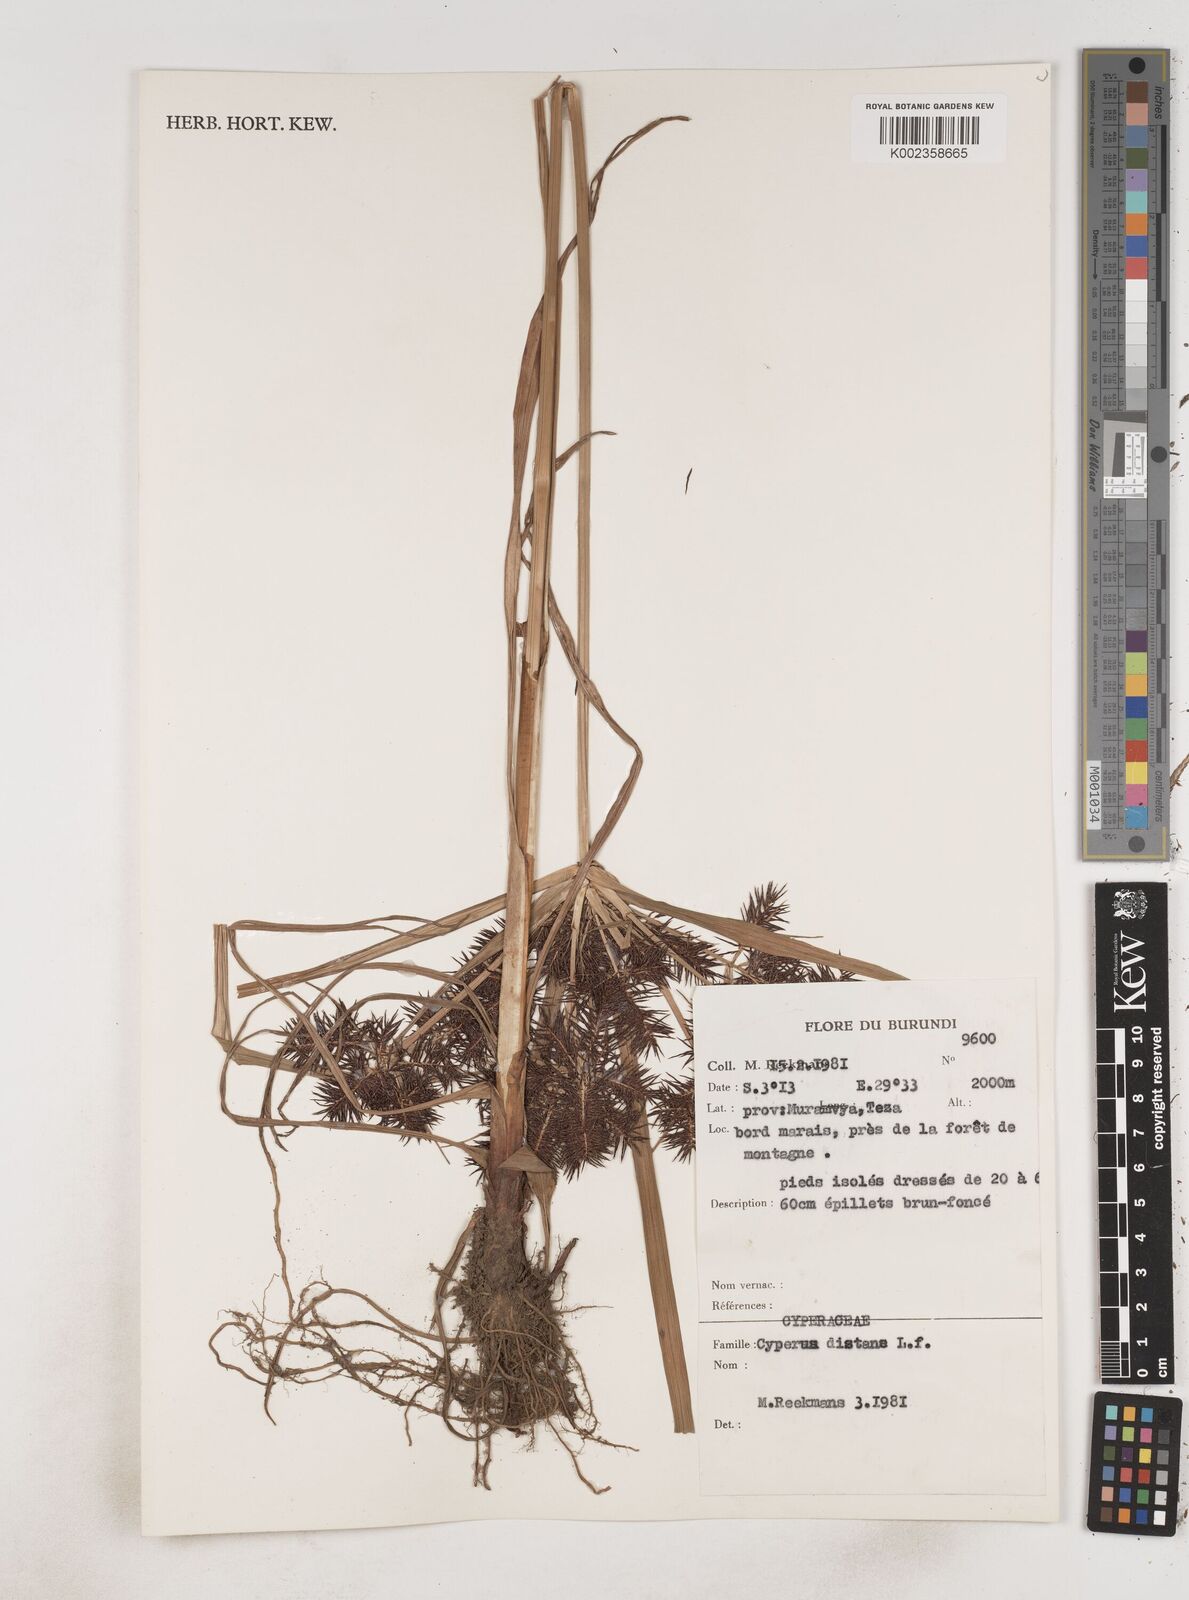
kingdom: Plantae
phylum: Tracheophyta
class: Liliopsida
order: Poales
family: Cyperaceae
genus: Cyperus
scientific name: Cyperus distans
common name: Slender cyperus
